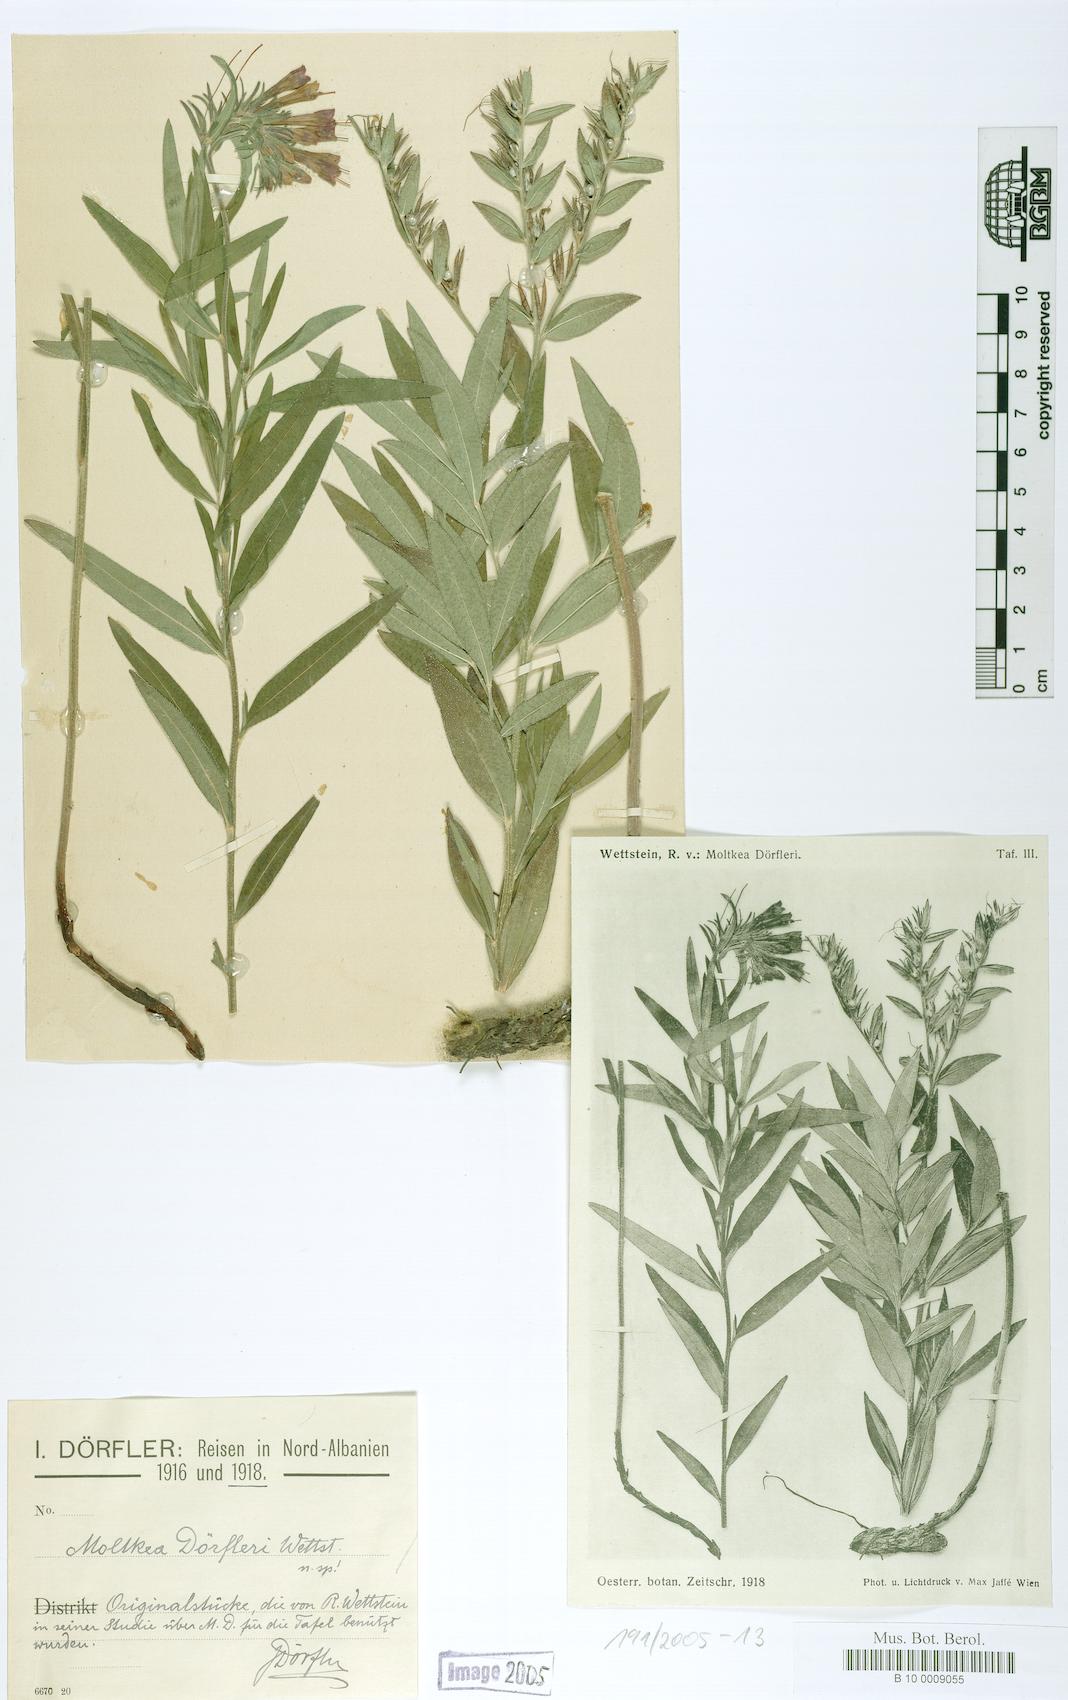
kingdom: Plantae
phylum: Tracheophyta
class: Magnoliopsida
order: Boraginales
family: Boraginaceae
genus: Paramoltkia
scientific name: Paramoltkia doerfleri
